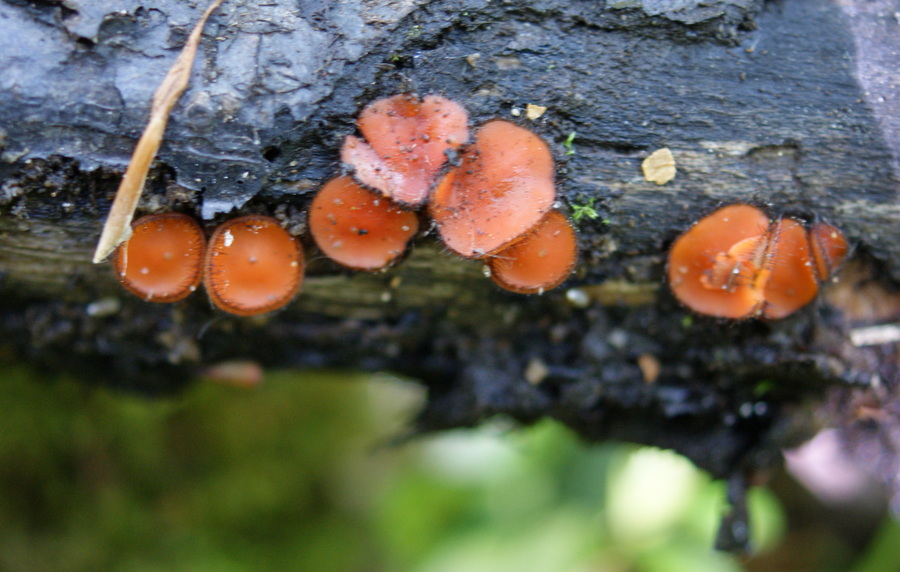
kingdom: Fungi
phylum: Ascomycota
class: Pezizomycetes
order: Pezizales
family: Pyronemataceae
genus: Scutellinia
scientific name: Scutellinia scutellata
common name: frynset skjoldbæger
